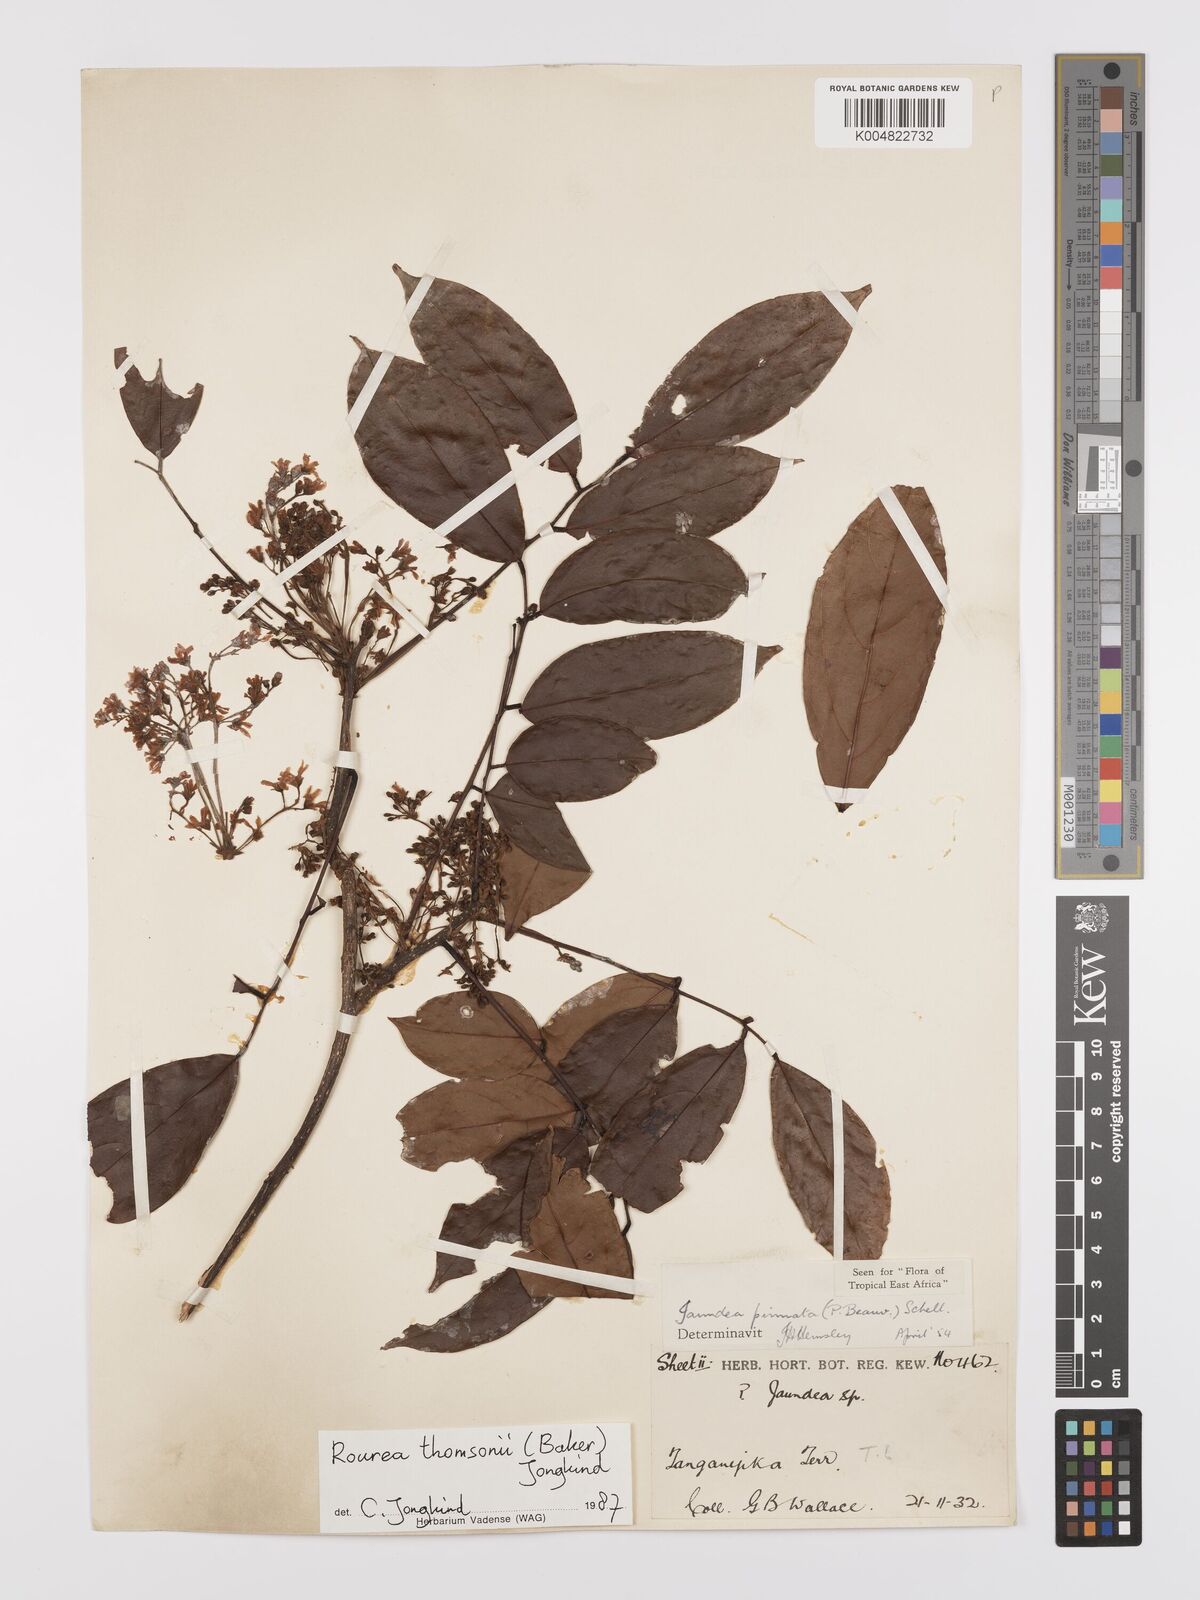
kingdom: Plantae
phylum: Tracheophyta
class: Magnoliopsida
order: Oxalidales
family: Connaraceae
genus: Rourea
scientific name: Rourea pinnata
